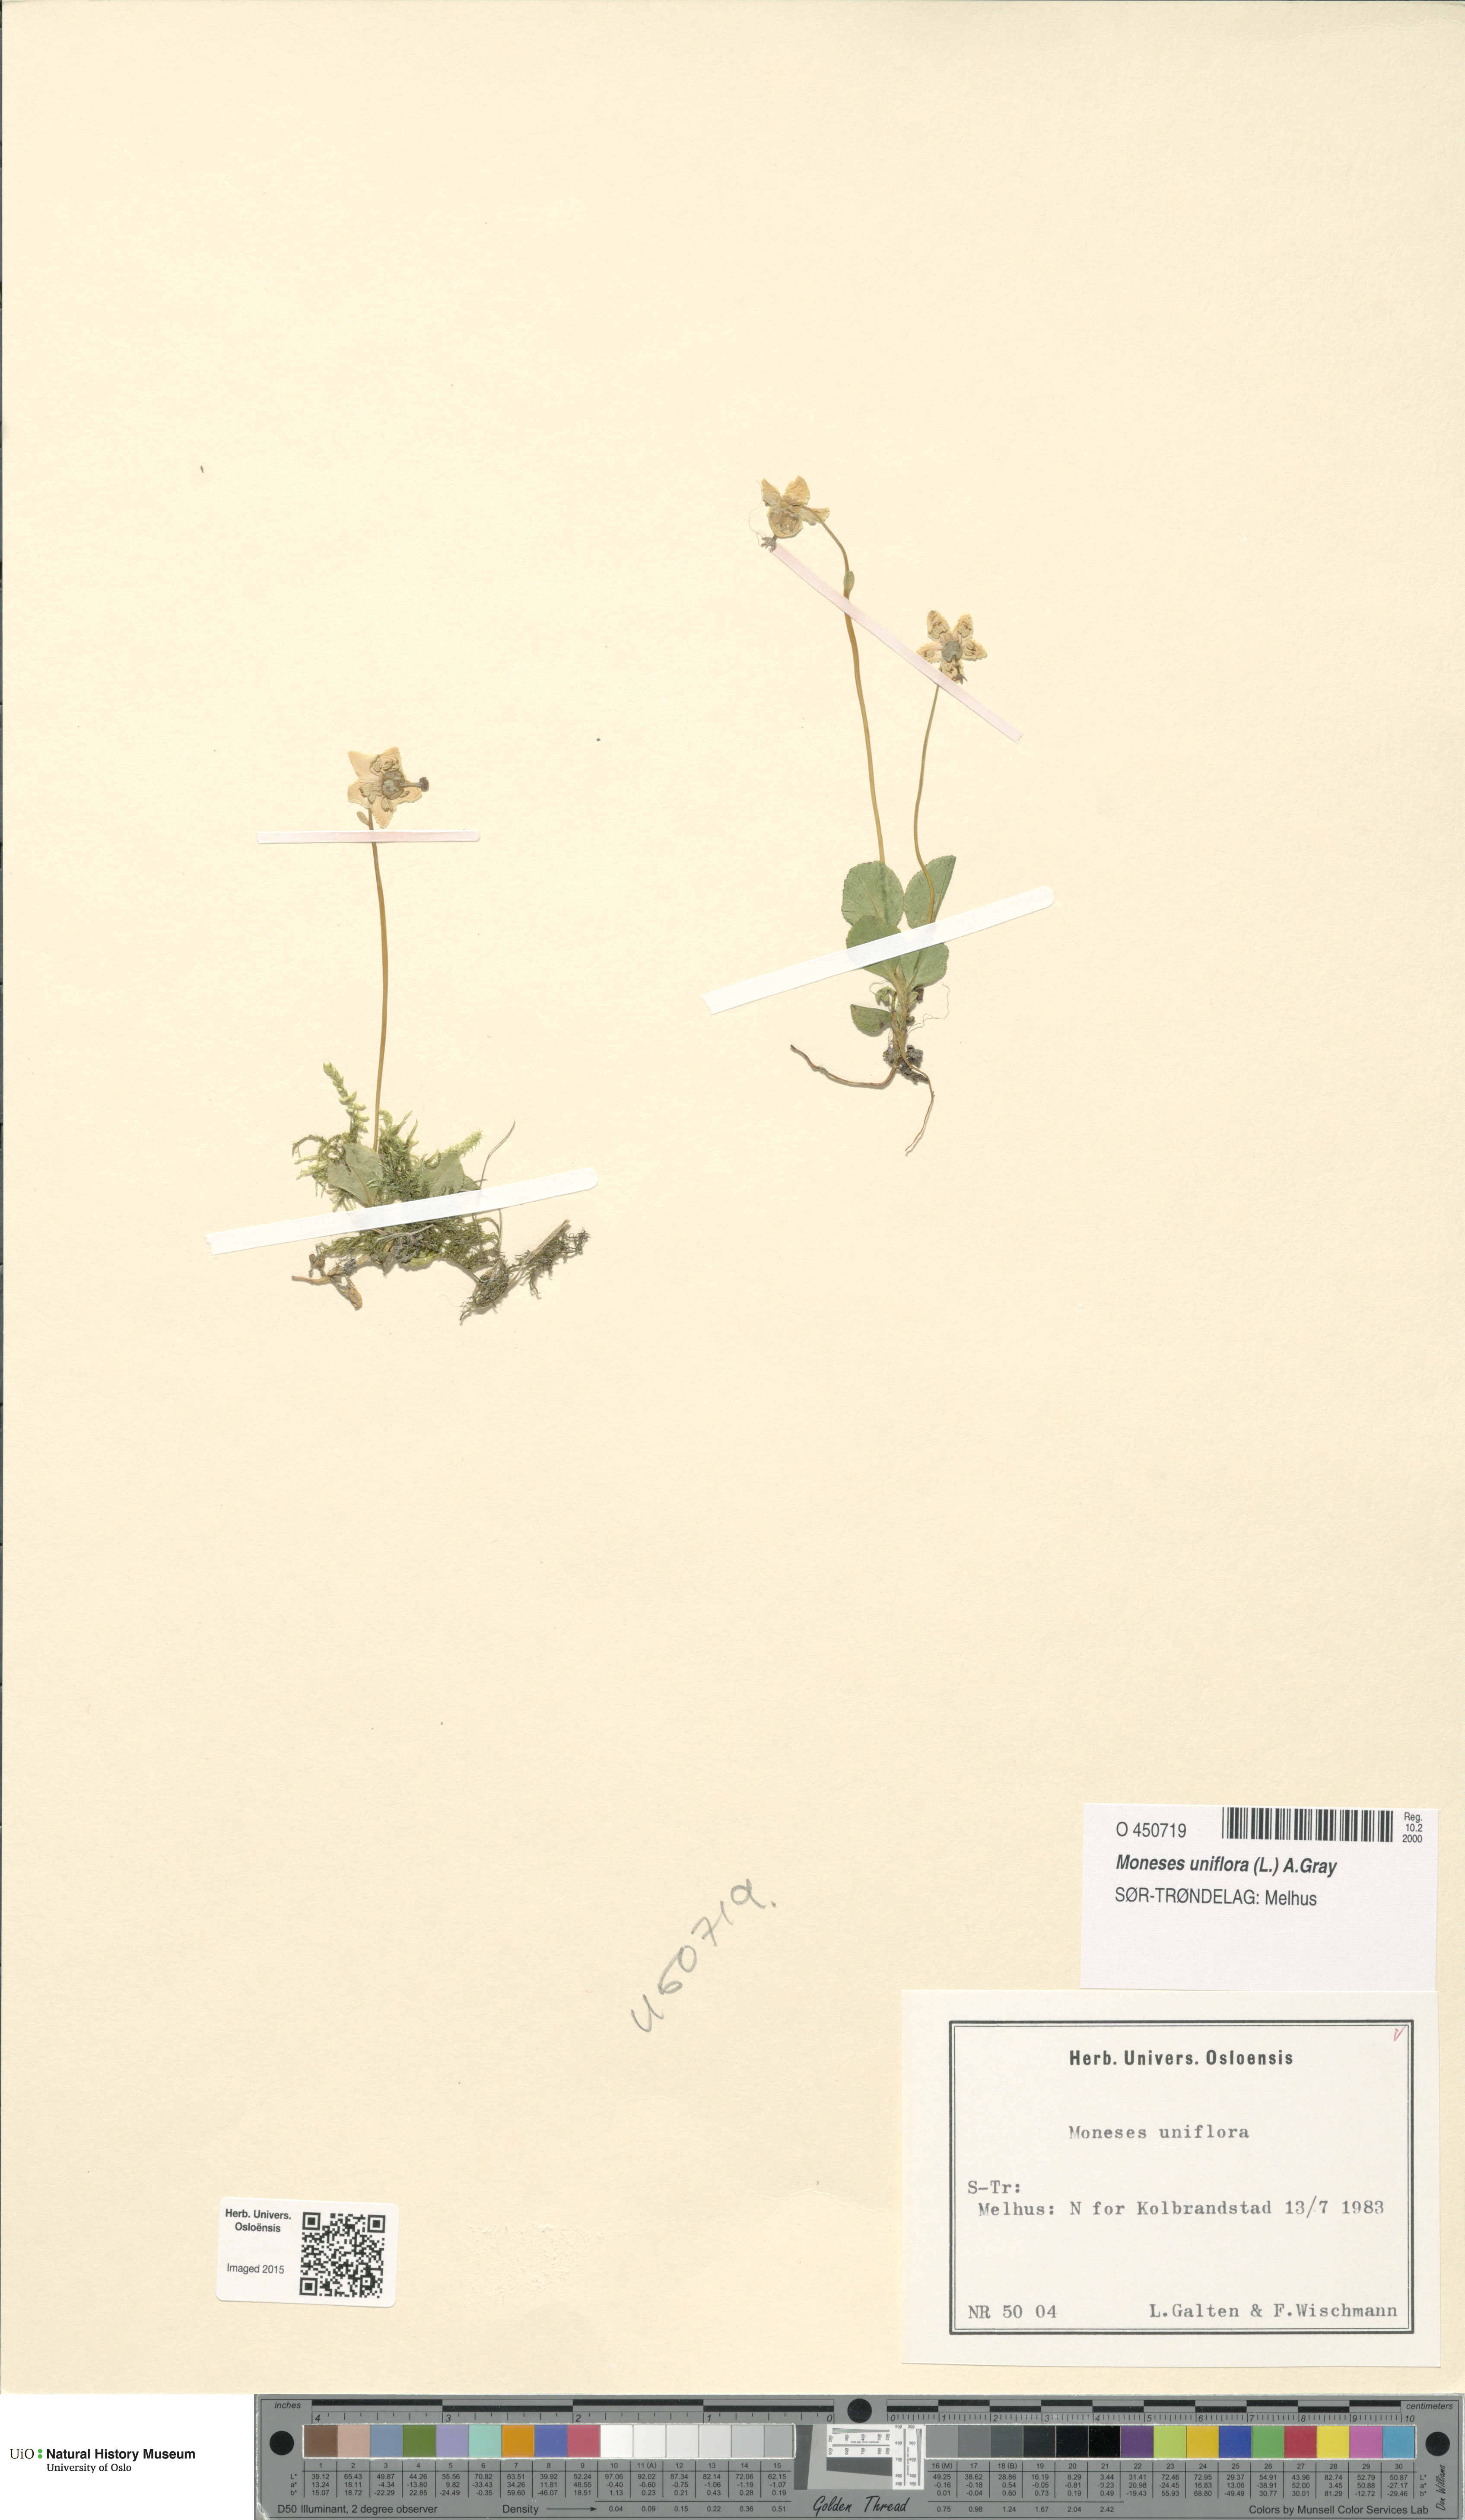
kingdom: Plantae
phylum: Tracheophyta
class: Magnoliopsida
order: Ericales
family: Ericaceae
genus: Moneses
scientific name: Moneses uniflora
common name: One-flowered wintergreen
